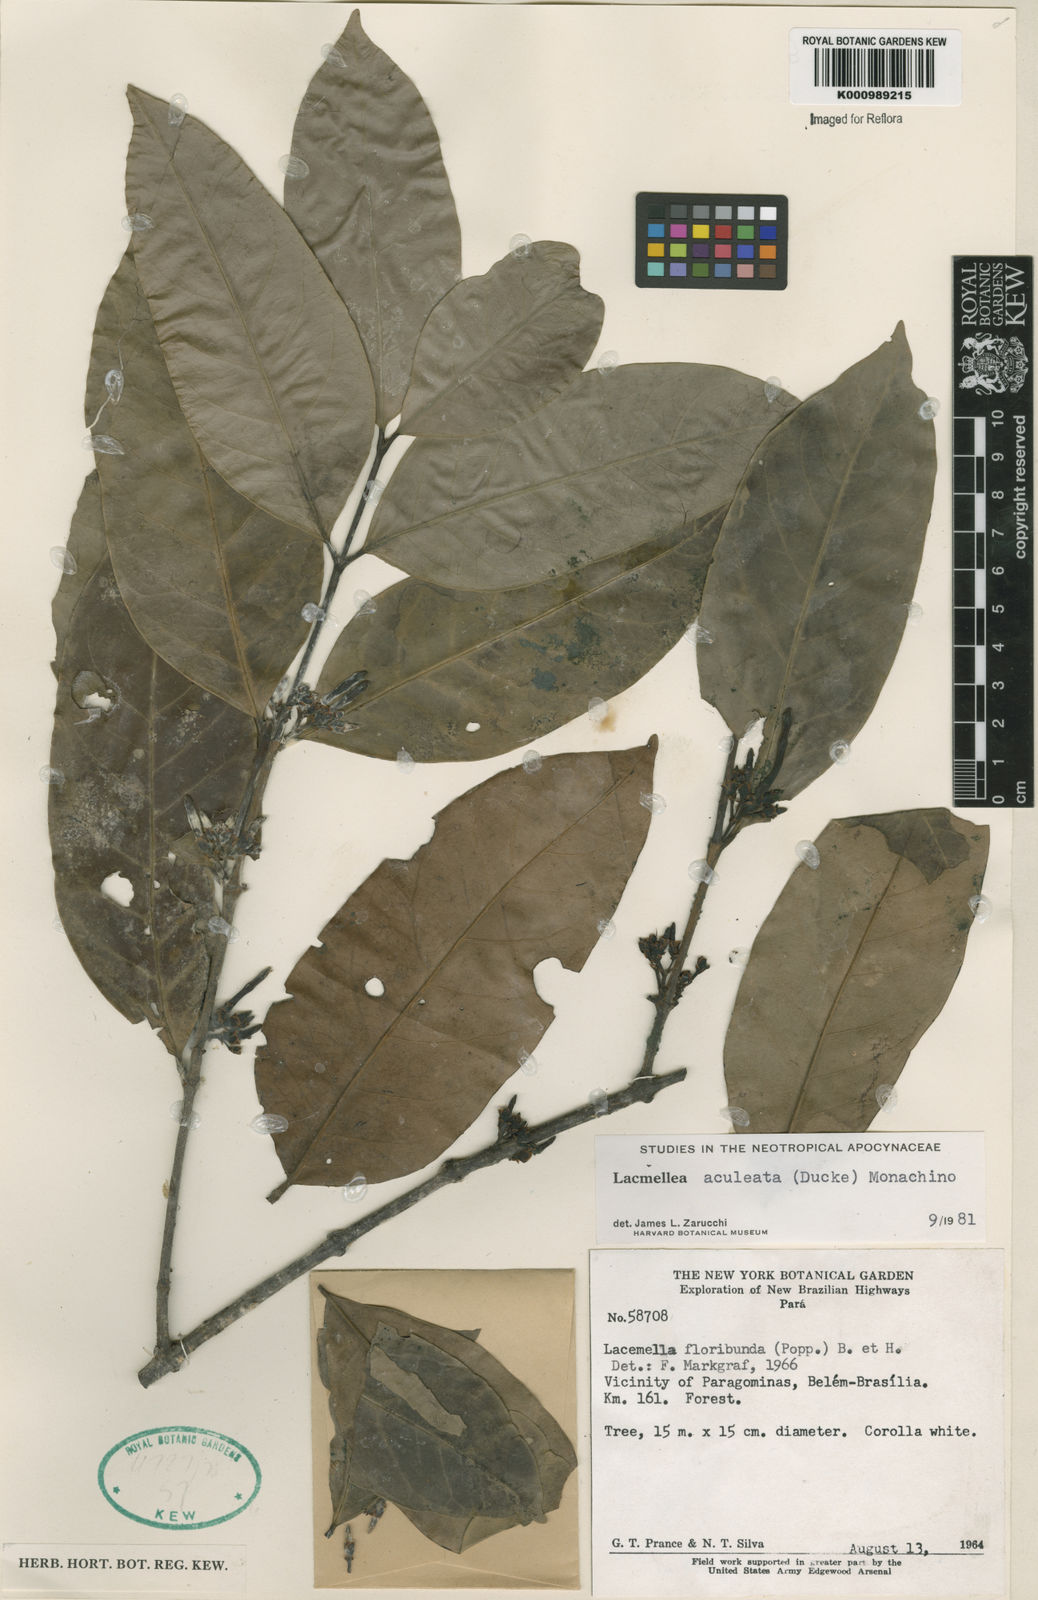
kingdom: Plantae
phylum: Tracheophyta
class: Magnoliopsida
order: Gentianales
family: Apocynaceae
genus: Lacmellea
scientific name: Lacmellea aculeata
